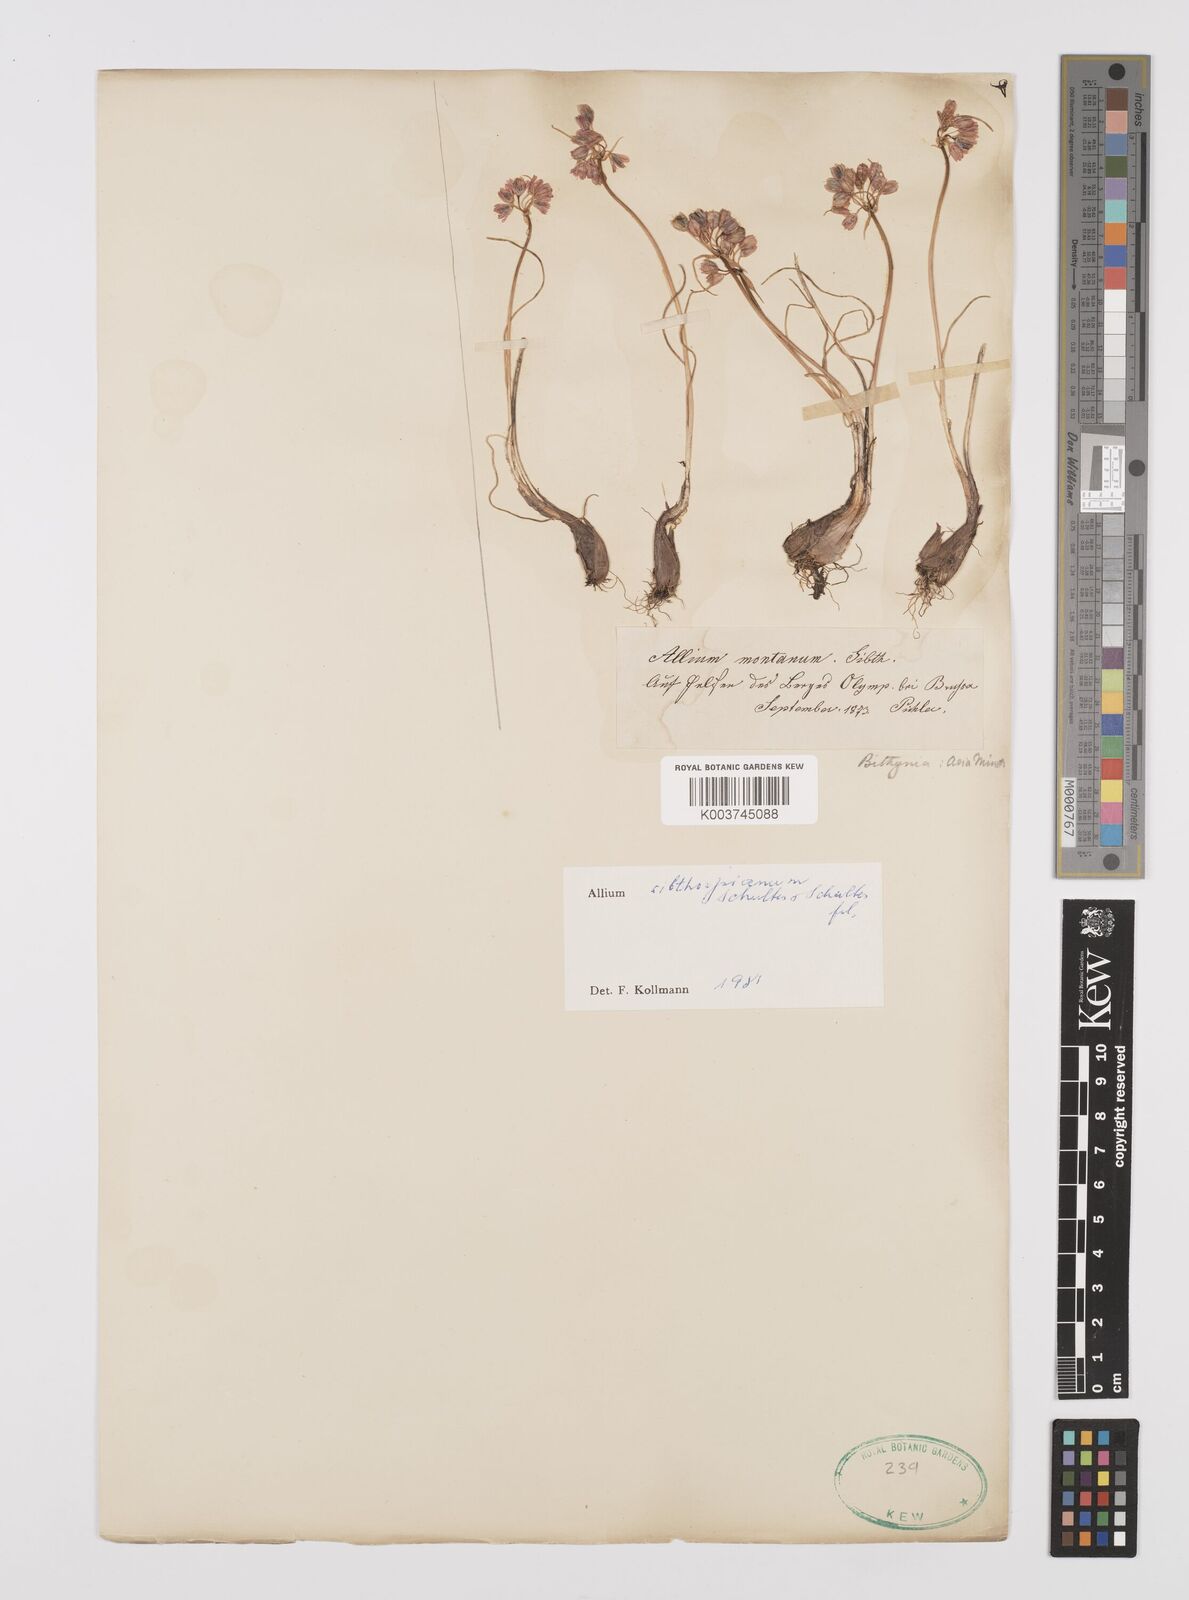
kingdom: Plantae
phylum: Tracheophyta
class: Liliopsida
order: Asparagales
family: Amaryllidaceae
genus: Allium
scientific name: Allium sibthorpianum
